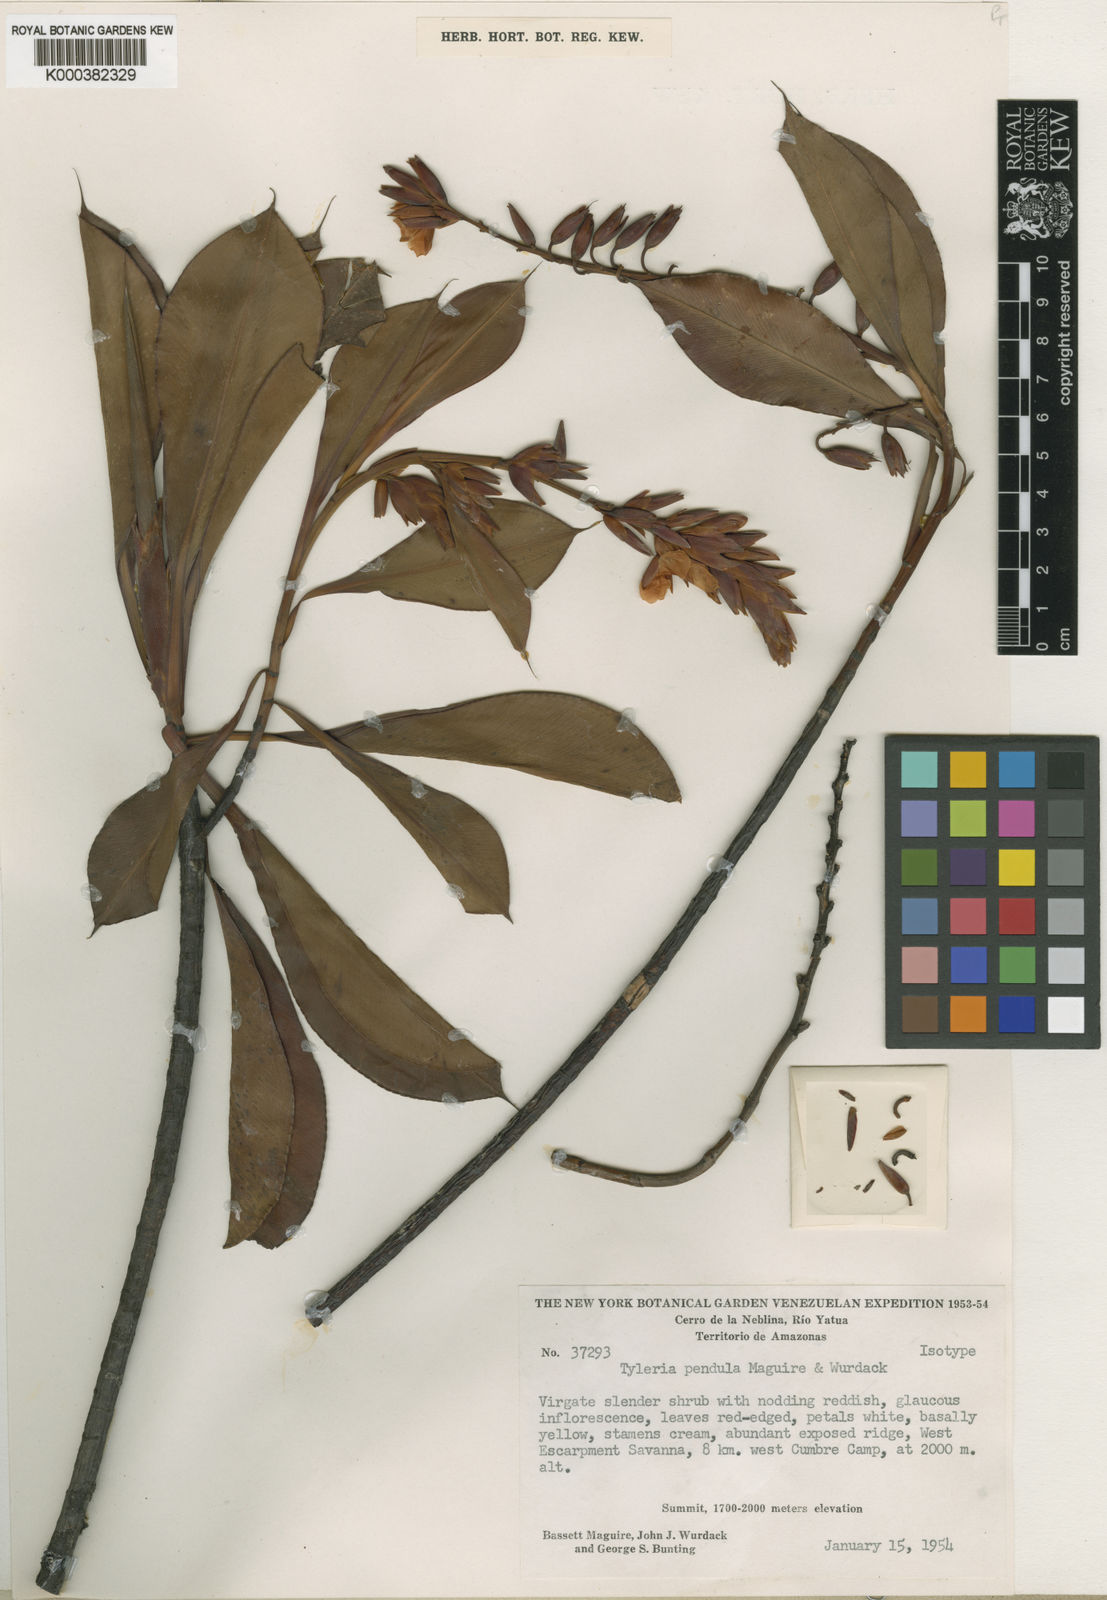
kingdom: Plantae
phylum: Tracheophyta
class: Magnoliopsida
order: Malpighiales
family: Ochnaceae
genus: Tyleria
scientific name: Tyleria pendula
